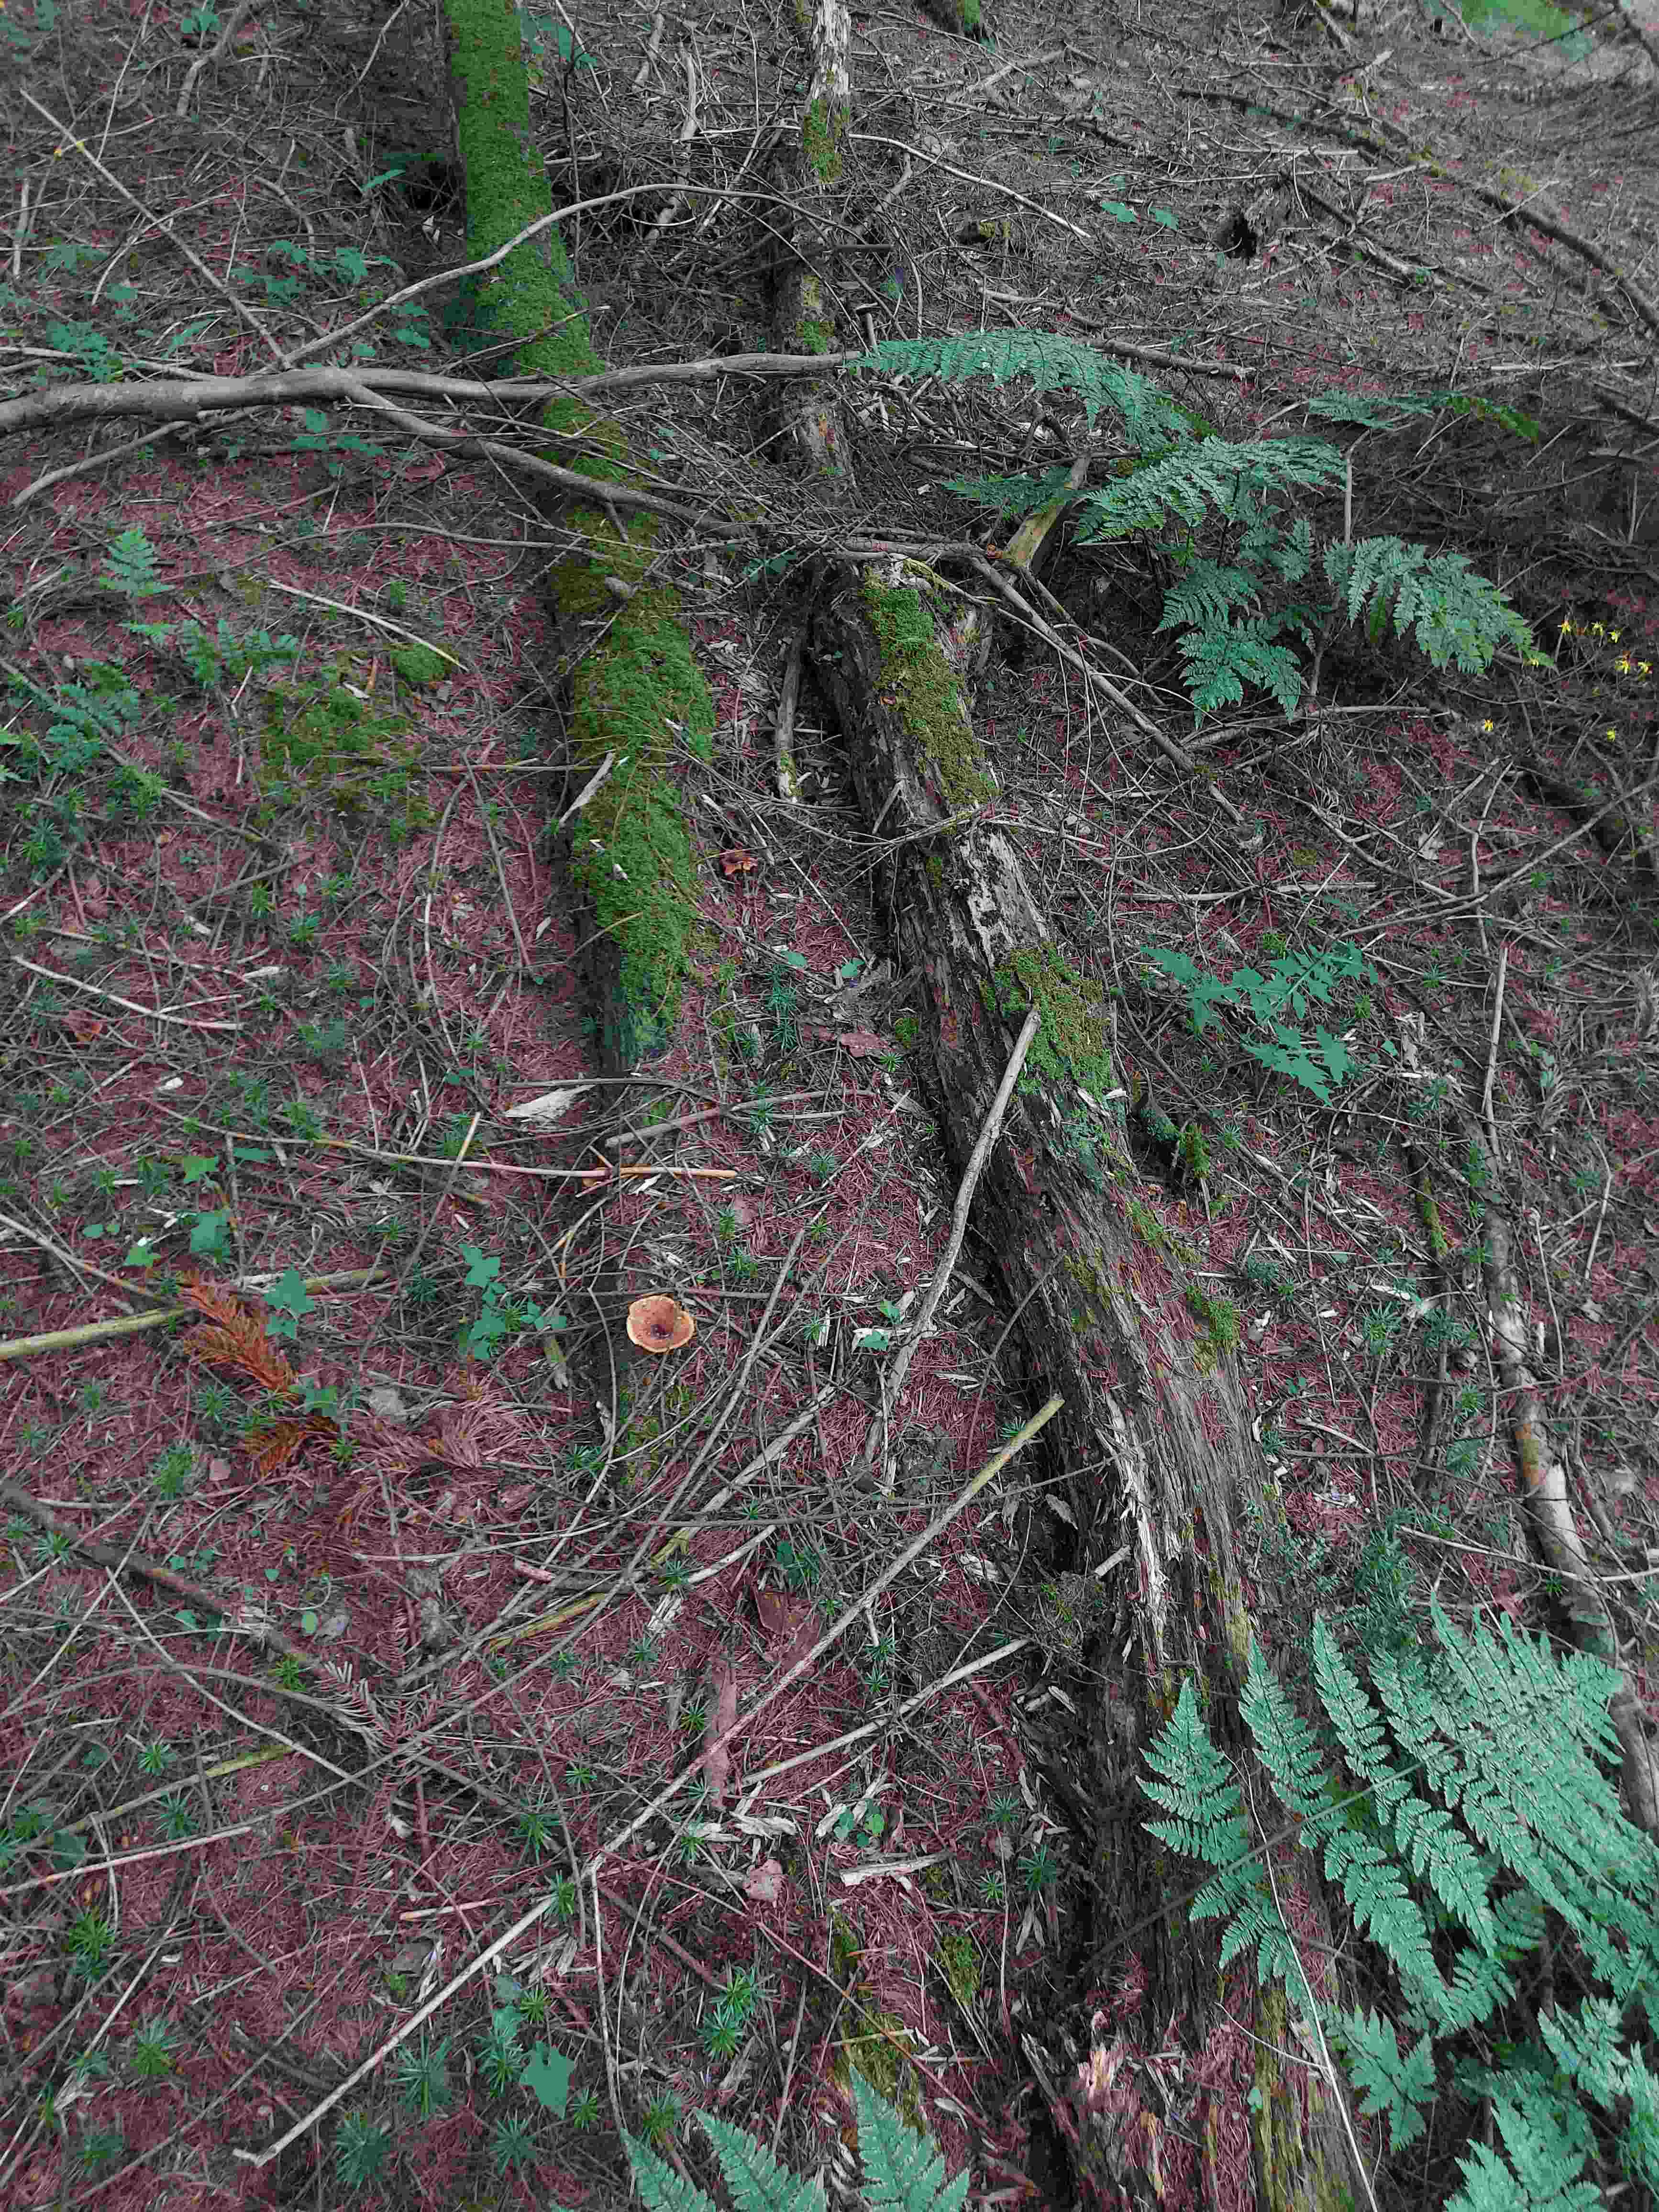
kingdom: Fungi
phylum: Basidiomycota
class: Agaricomycetes
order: Polyporales
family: Polyporaceae
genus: Picipes
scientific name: Picipes tubaeformis
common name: trompet-stilkporesvamp
